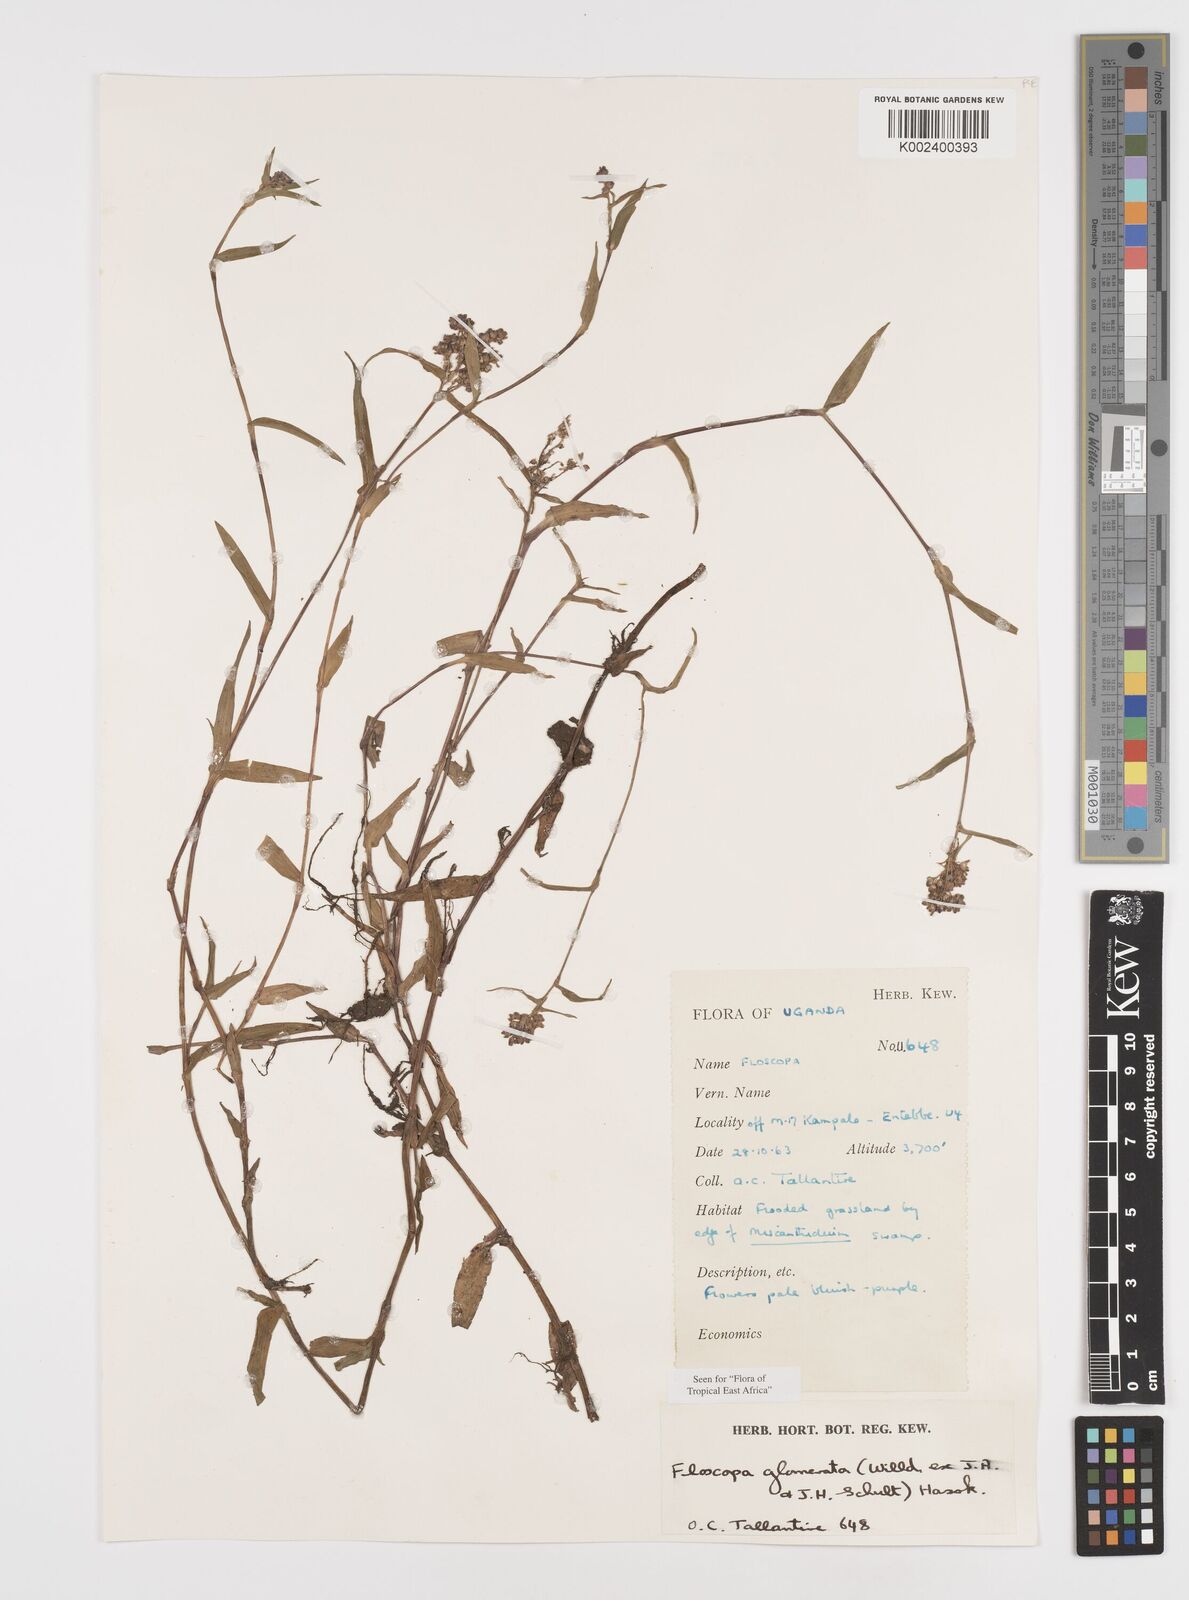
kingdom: Plantae
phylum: Tracheophyta
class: Liliopsida
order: Commelinales
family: Commelinaceae
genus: Floscopa
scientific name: Floscopa glomerata
